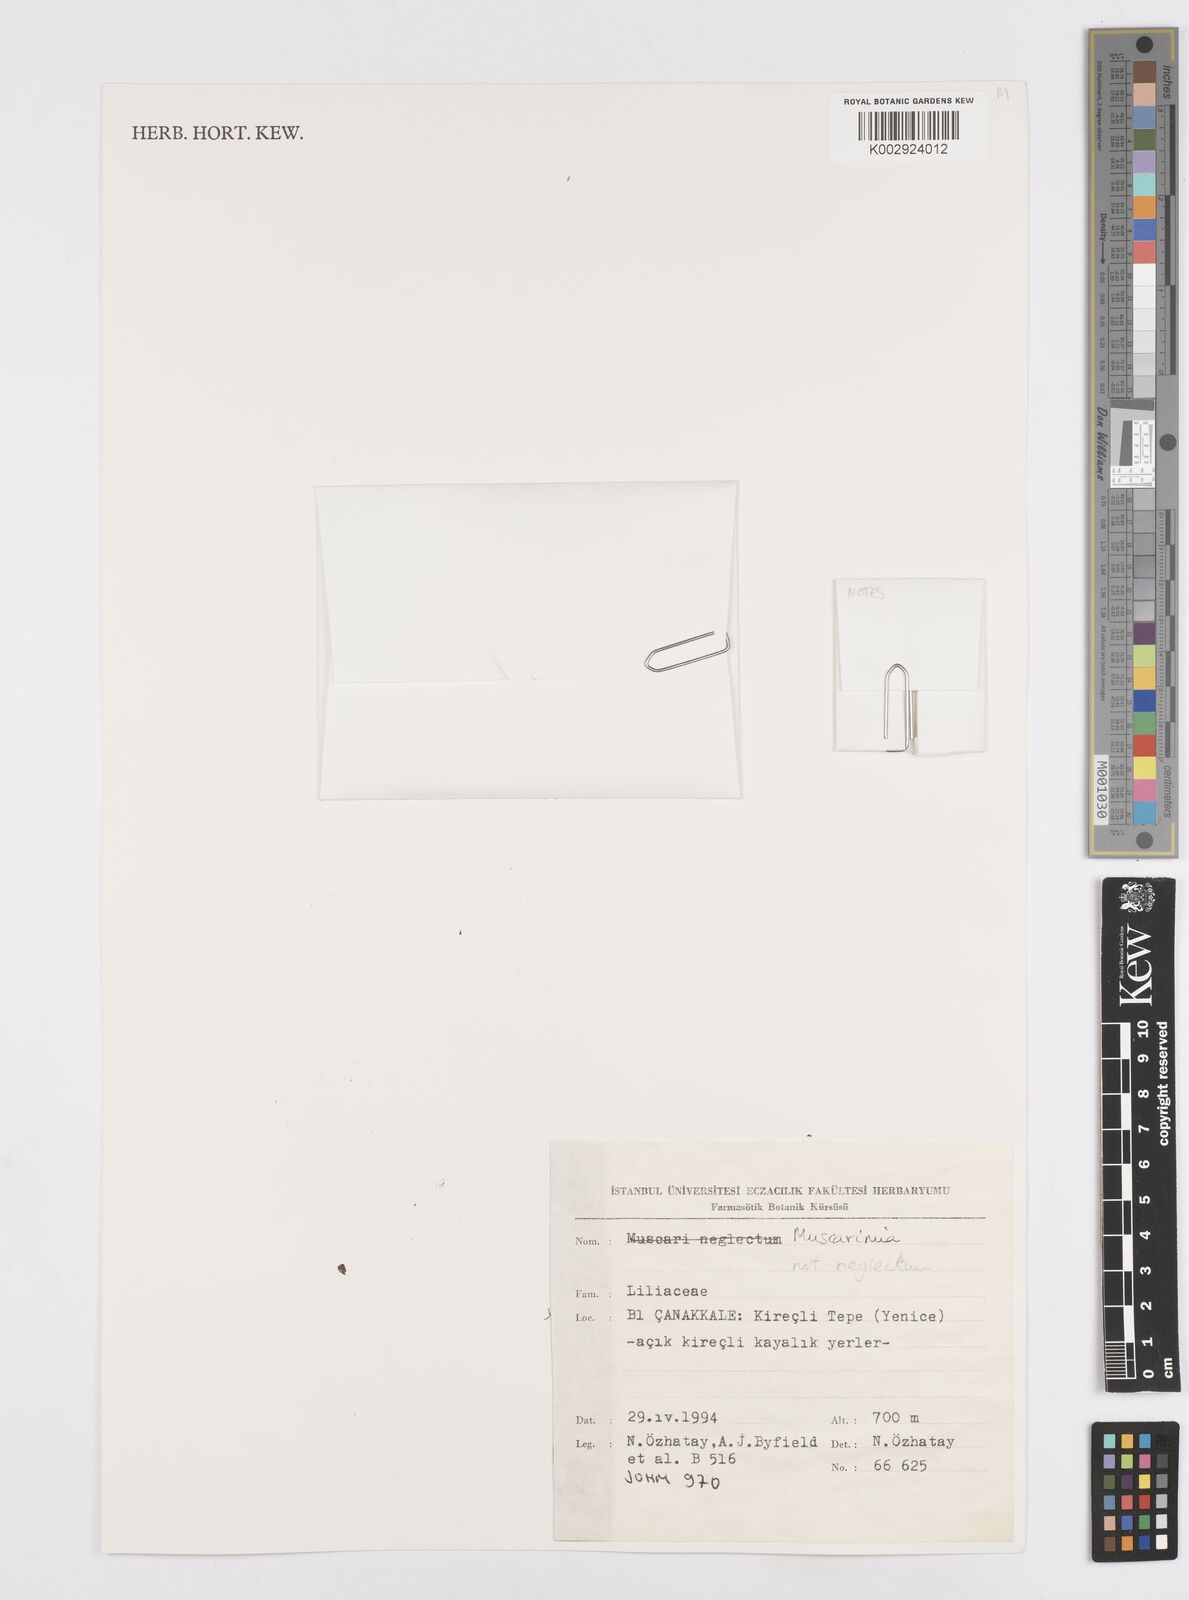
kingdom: Plantae
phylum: Tracheophyta
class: Liliopsida
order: Asparagales
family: Asparagaceae
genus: Muscari
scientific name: Muscari
